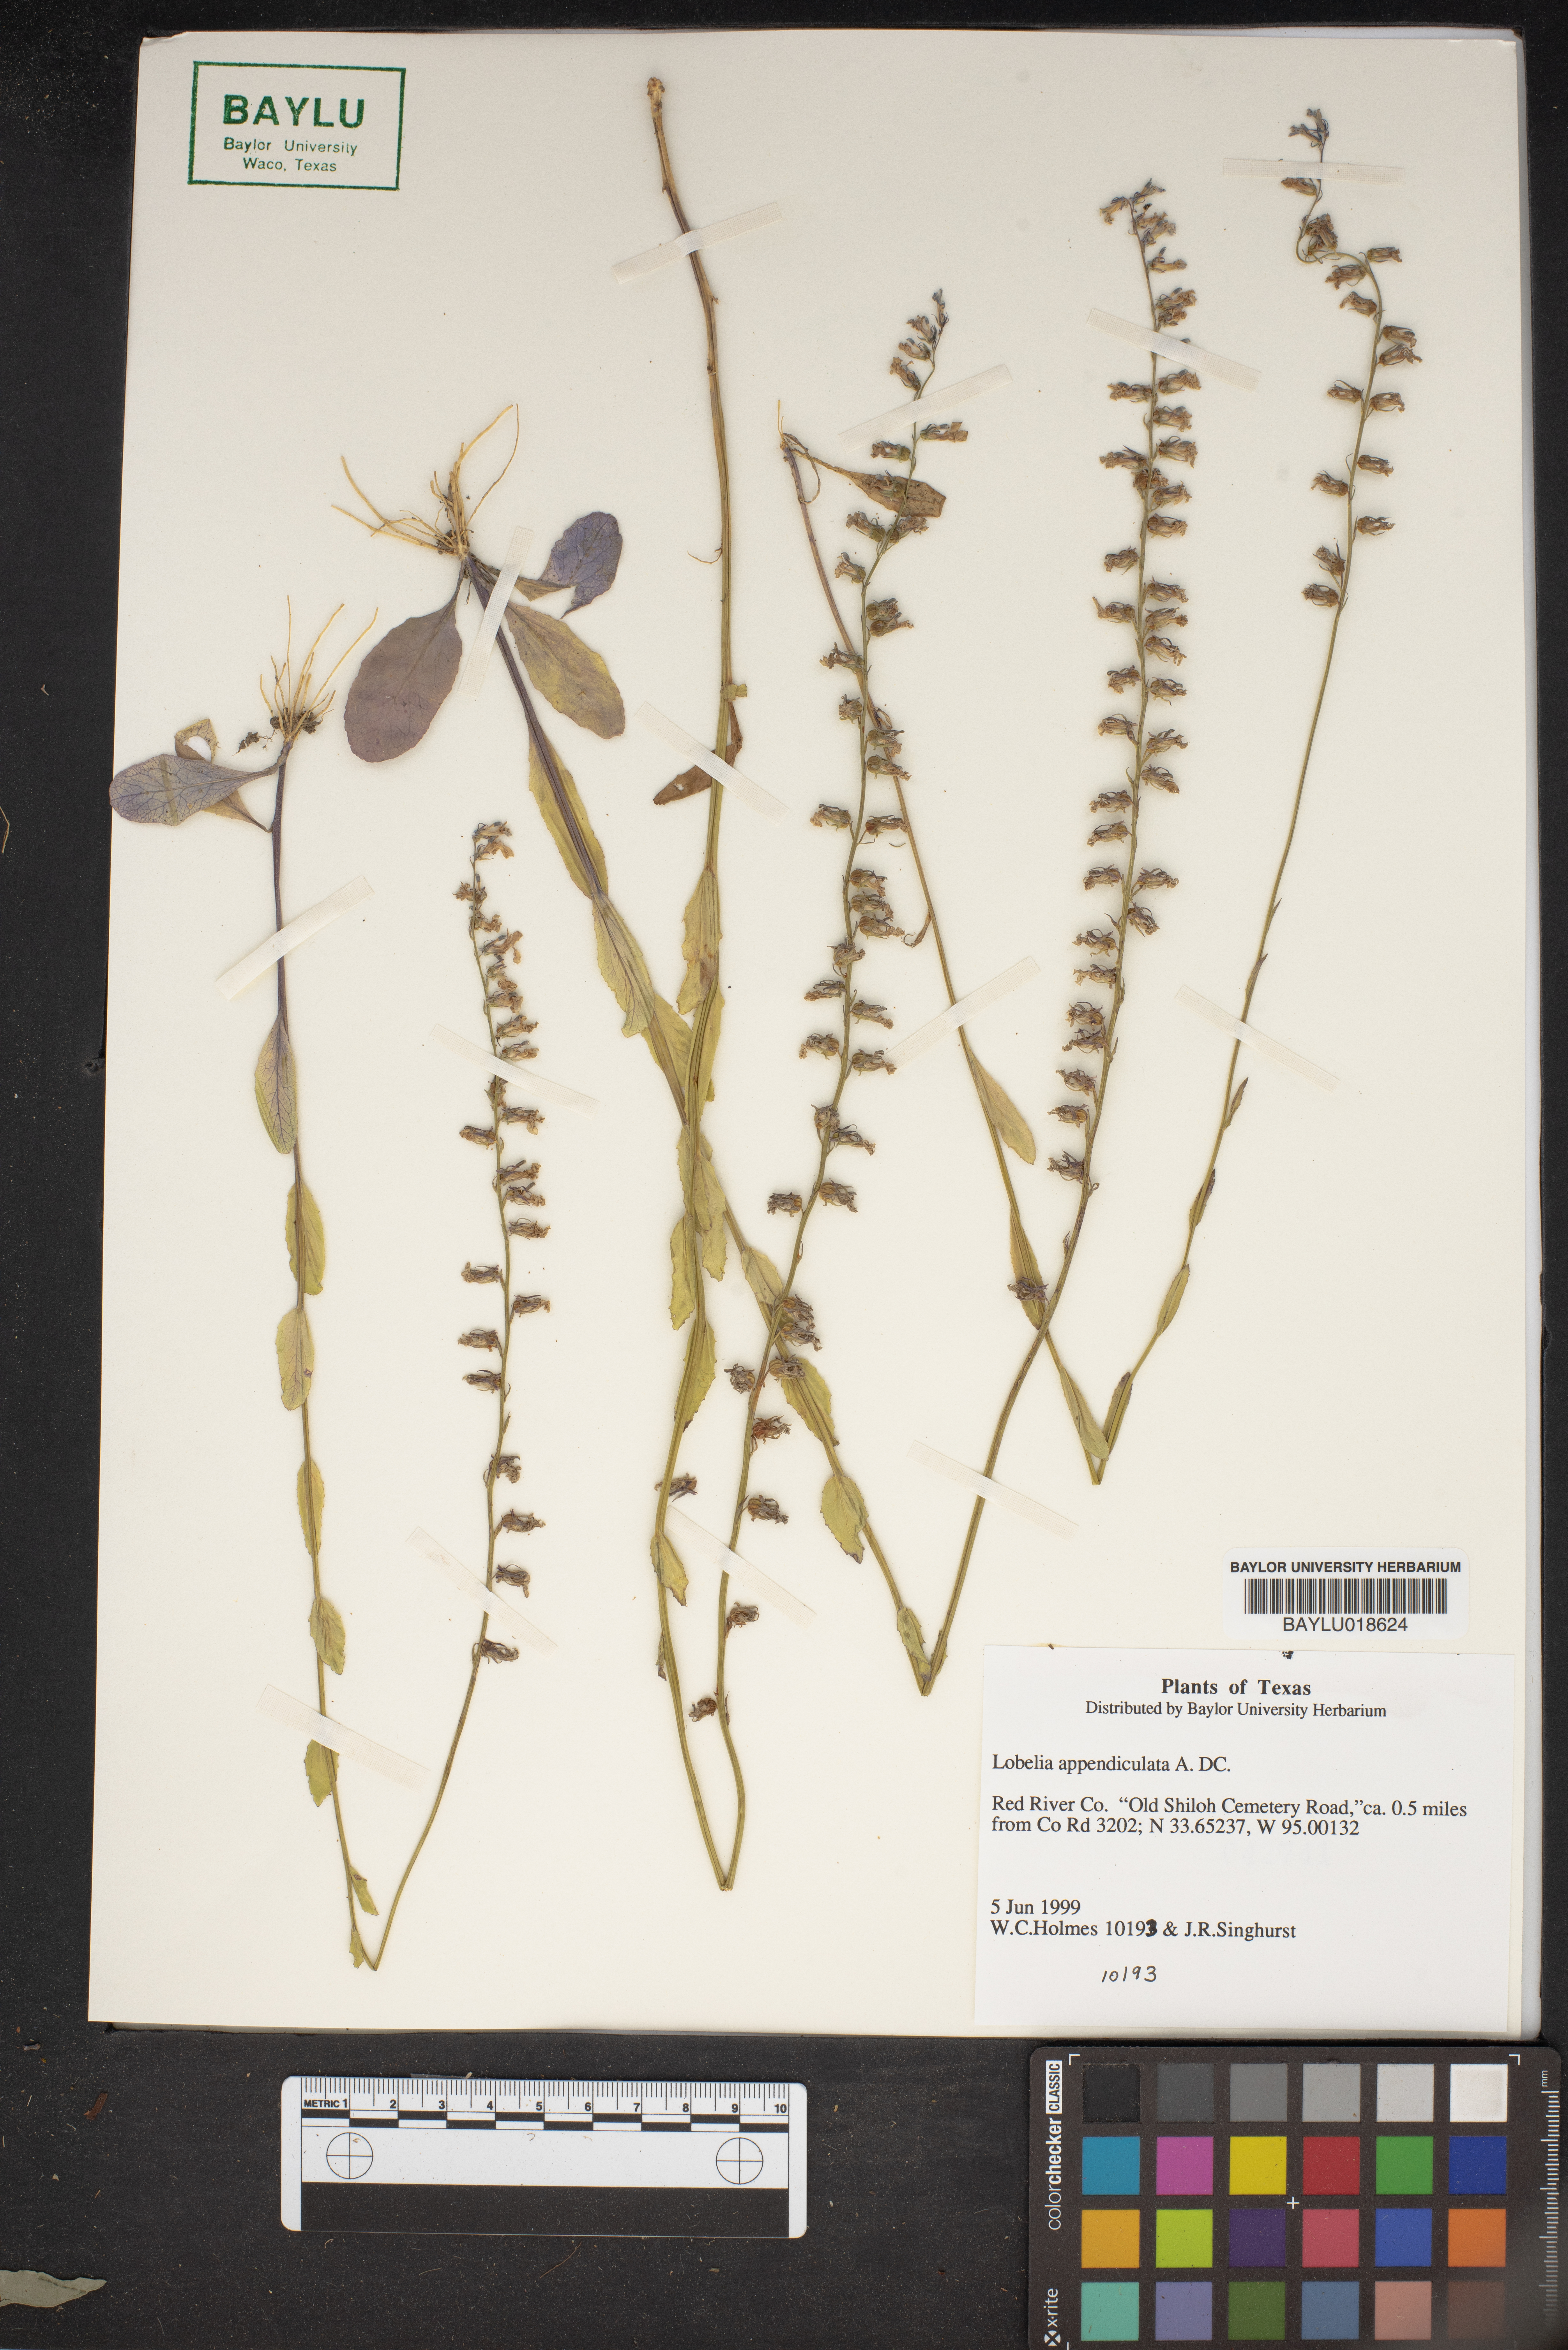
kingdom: Plantae
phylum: Tracheophyta
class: Magnoliopsida
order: Asterales
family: Campanulaceae
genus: Lobelia
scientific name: Lobelia appendiculata
